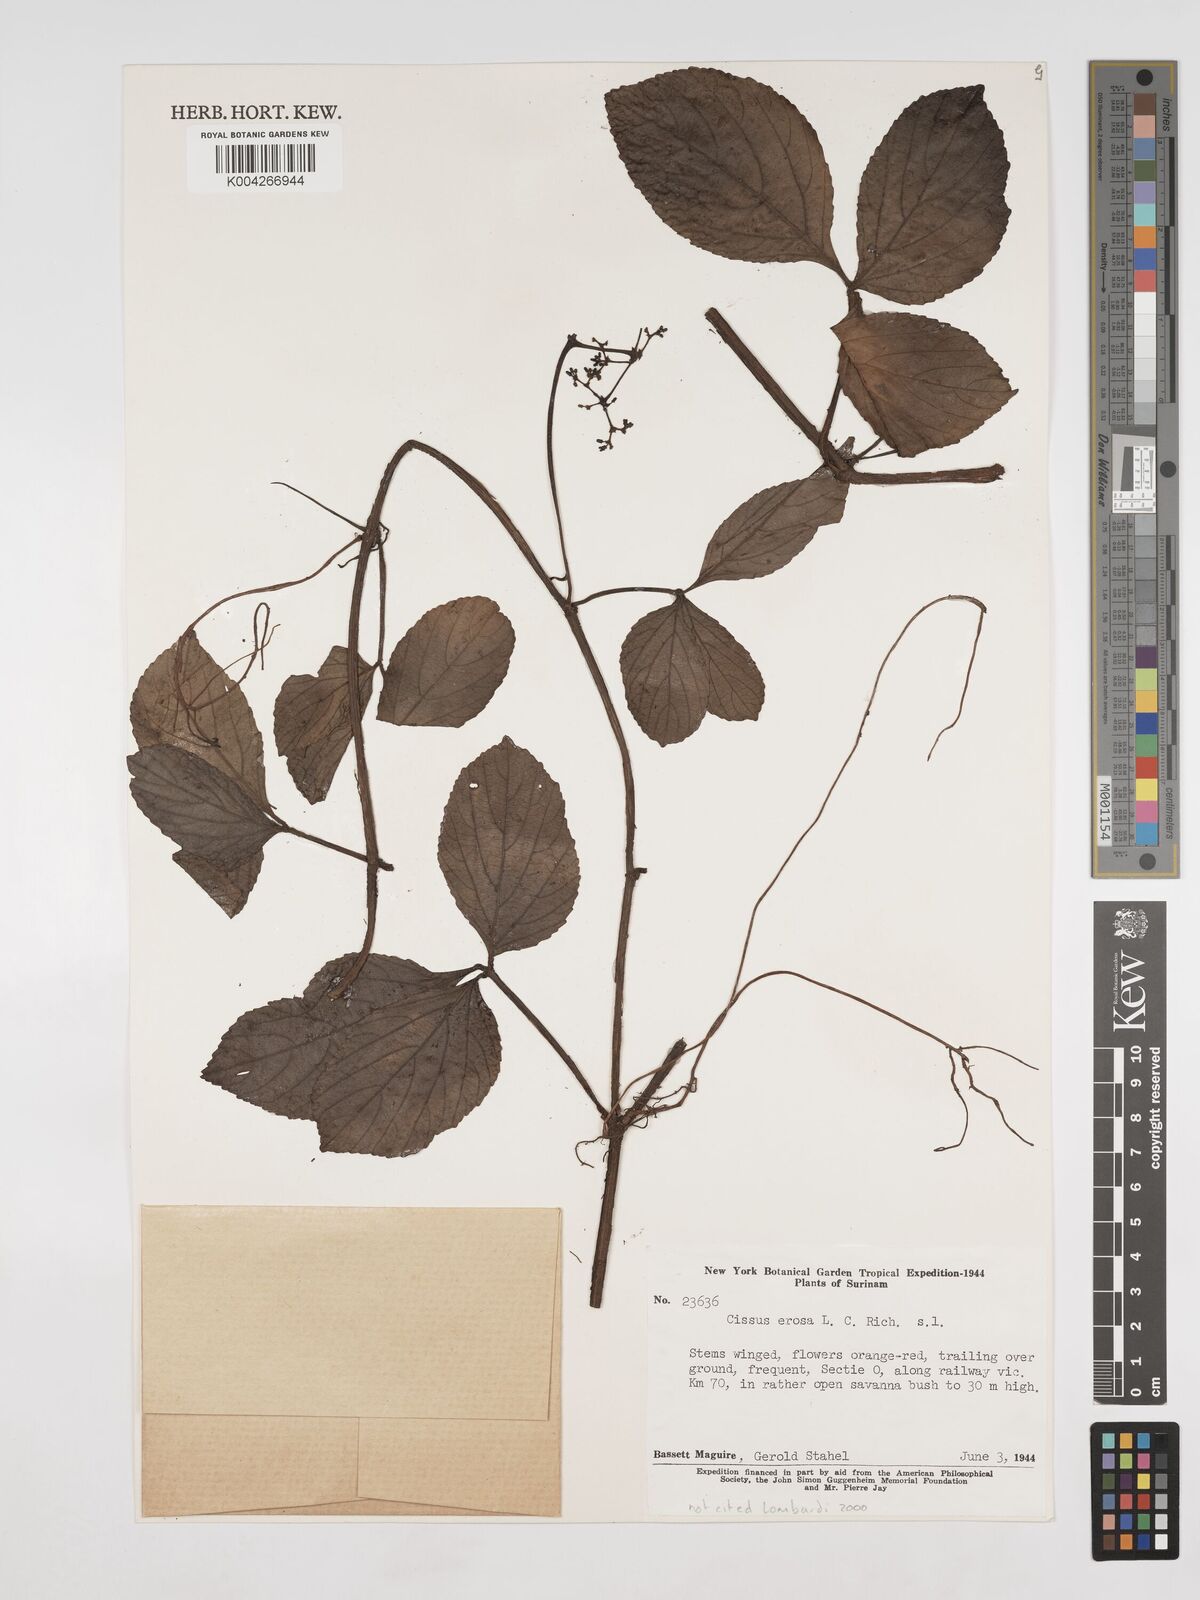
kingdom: Plantae
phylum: Tracheophyta
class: Magnoliopsida
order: Vitales
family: Vitaceae
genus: Cissus
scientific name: Cissus erosa
